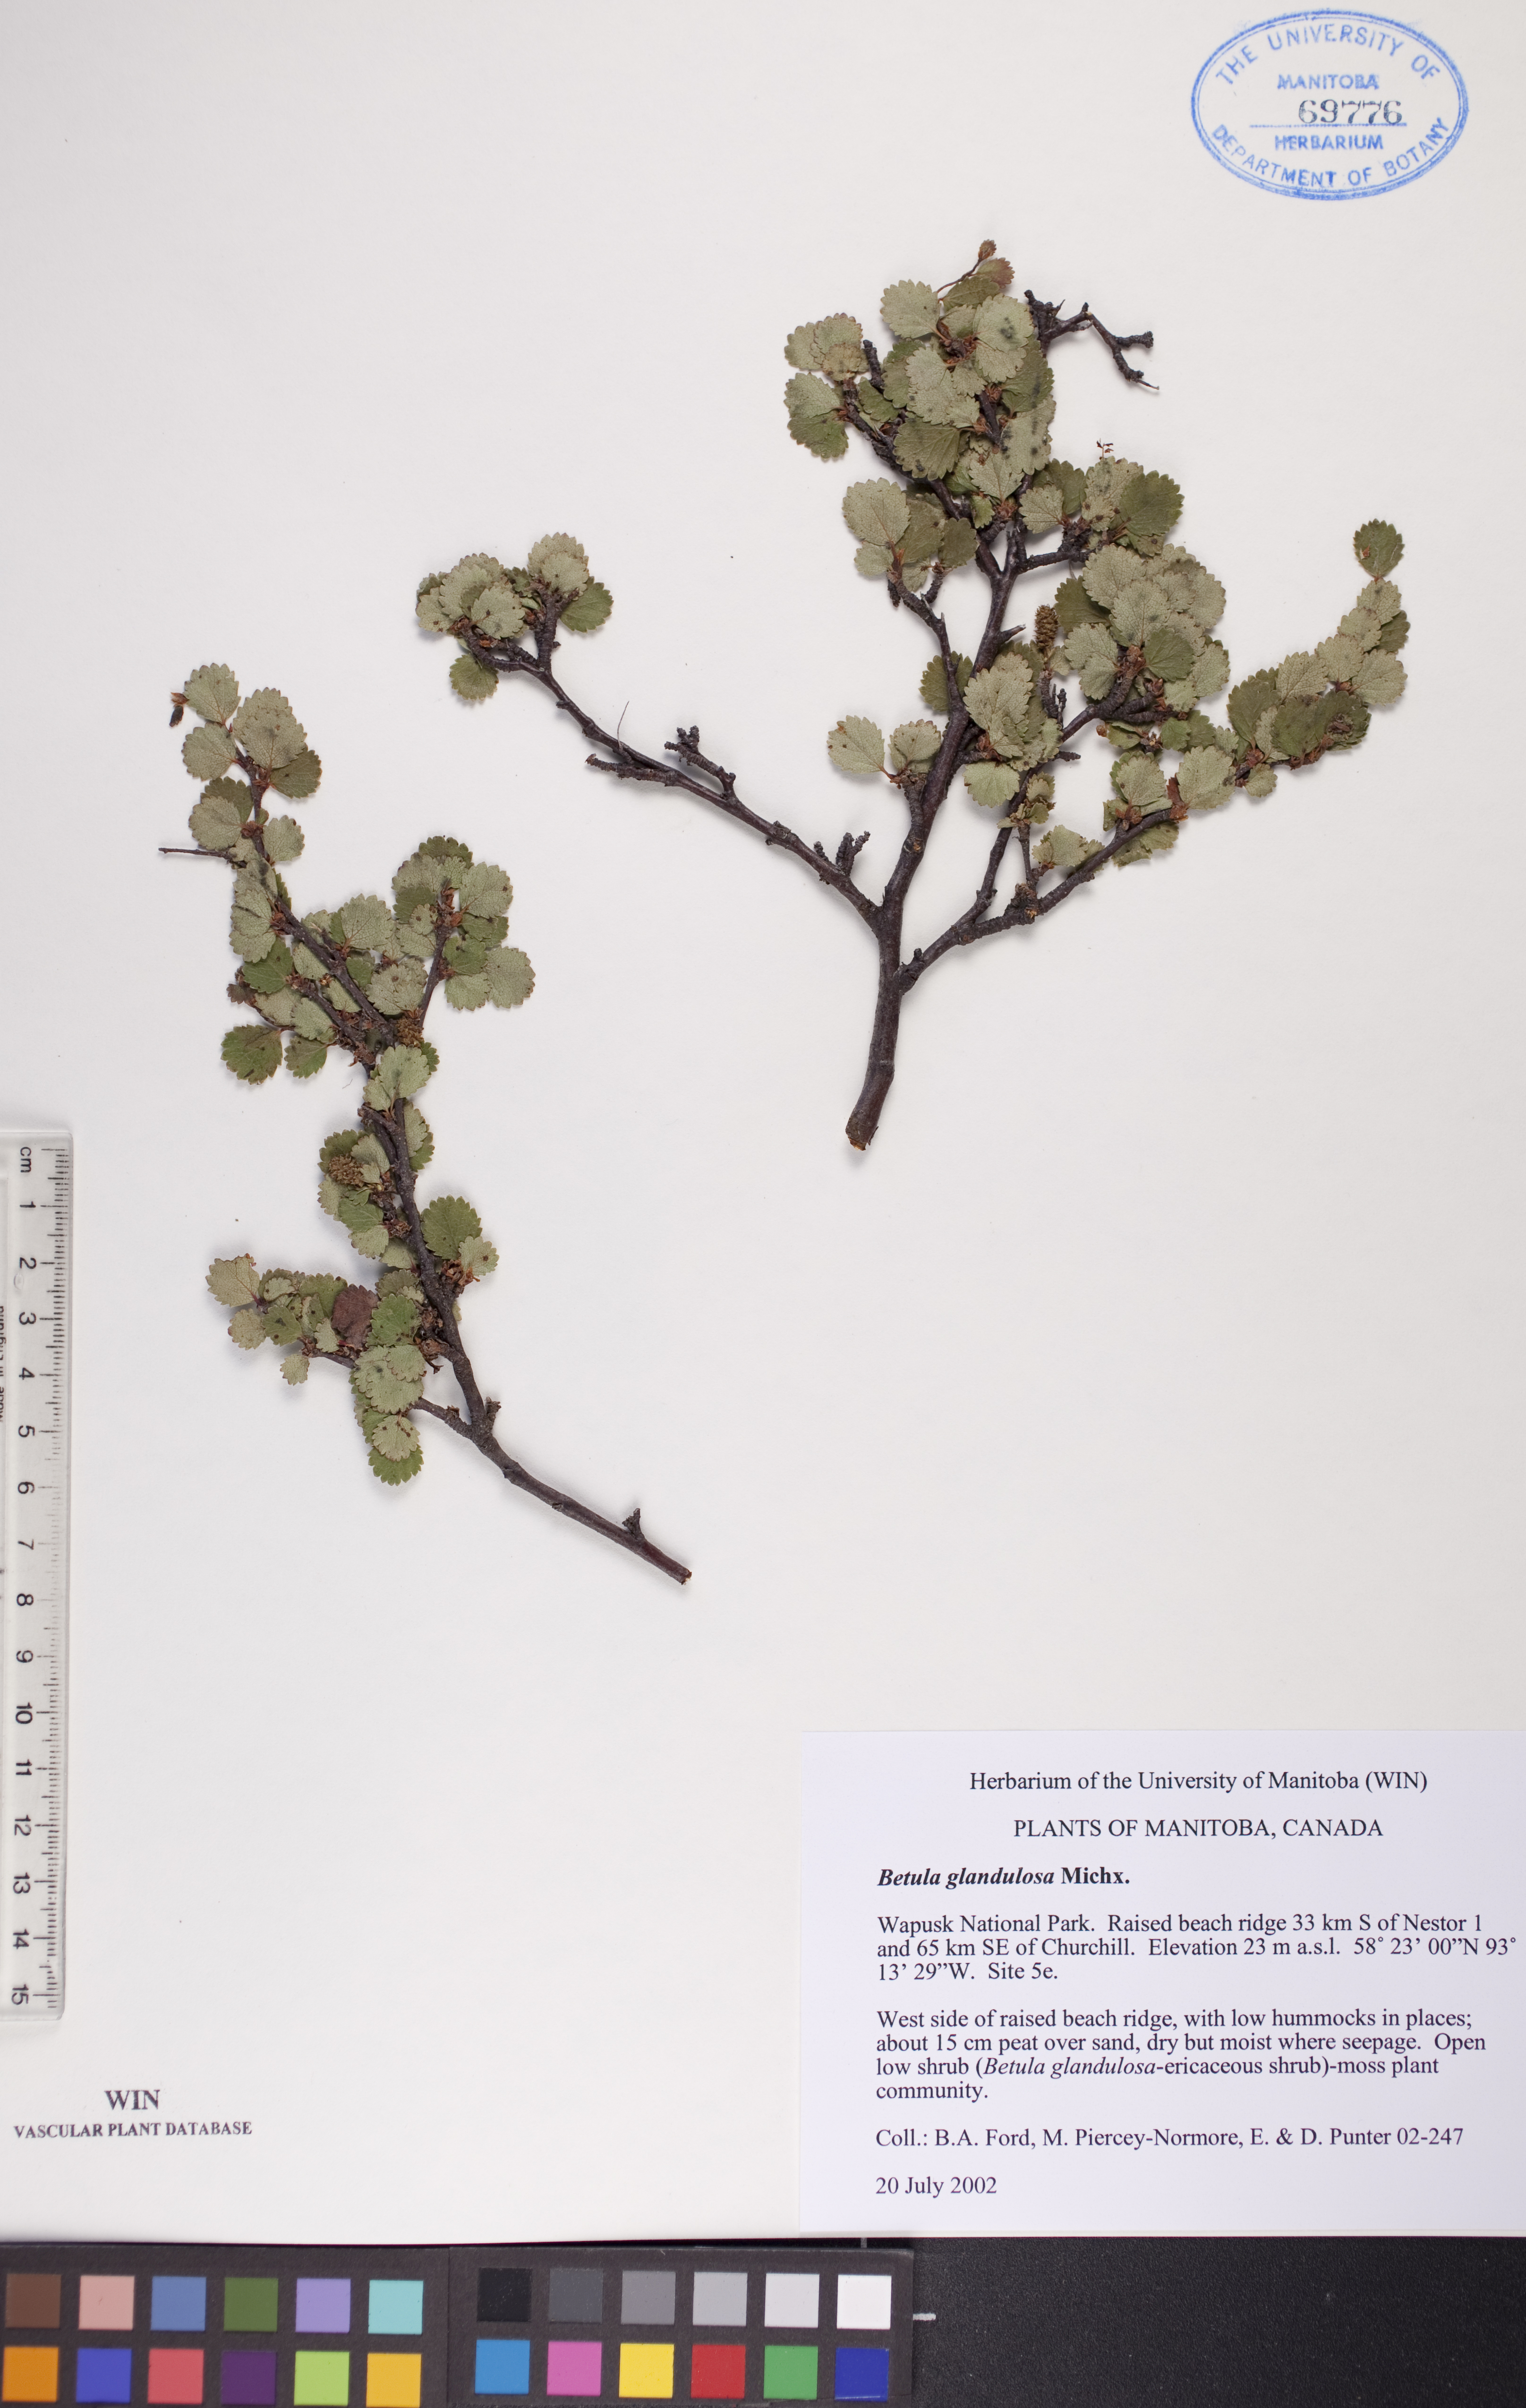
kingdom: Plantae
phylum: Tracheophyta
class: Magnoliopsida
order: Fagales
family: Betulaceae
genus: Betula
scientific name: Betula glandulosa
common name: Dwarf birch
